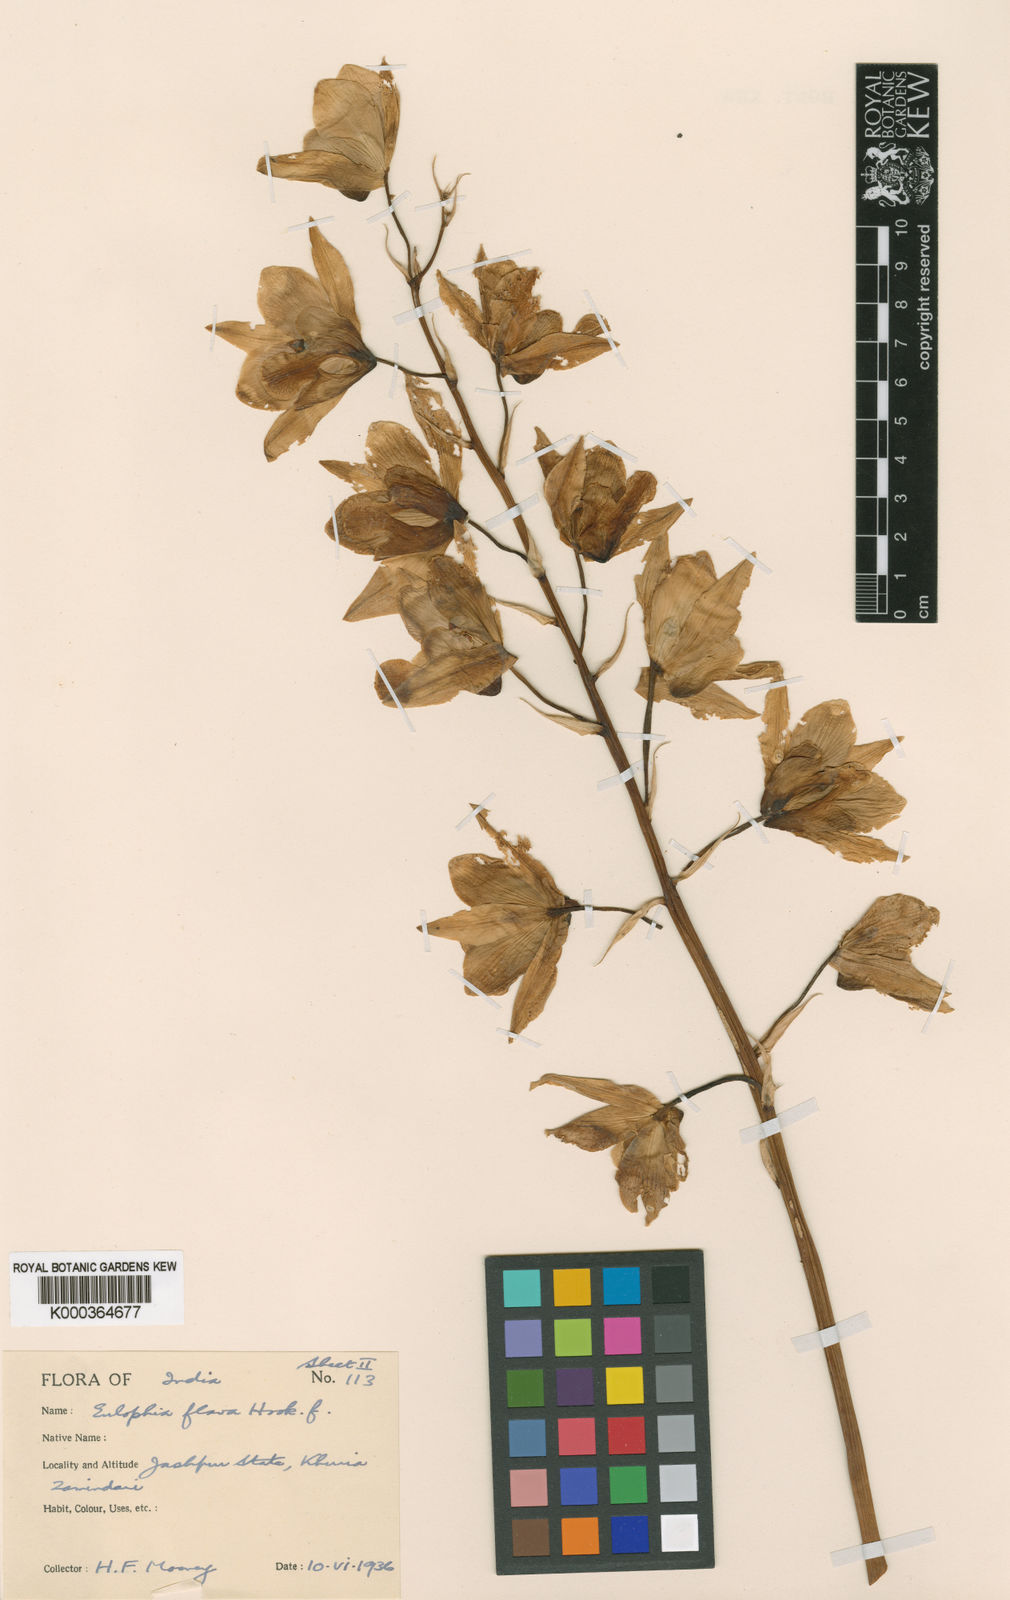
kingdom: Plantae
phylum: Tracheophyta
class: Liliopsida
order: Asparagales
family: Orchidaceae
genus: Eulophia
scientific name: Eulophia flava
